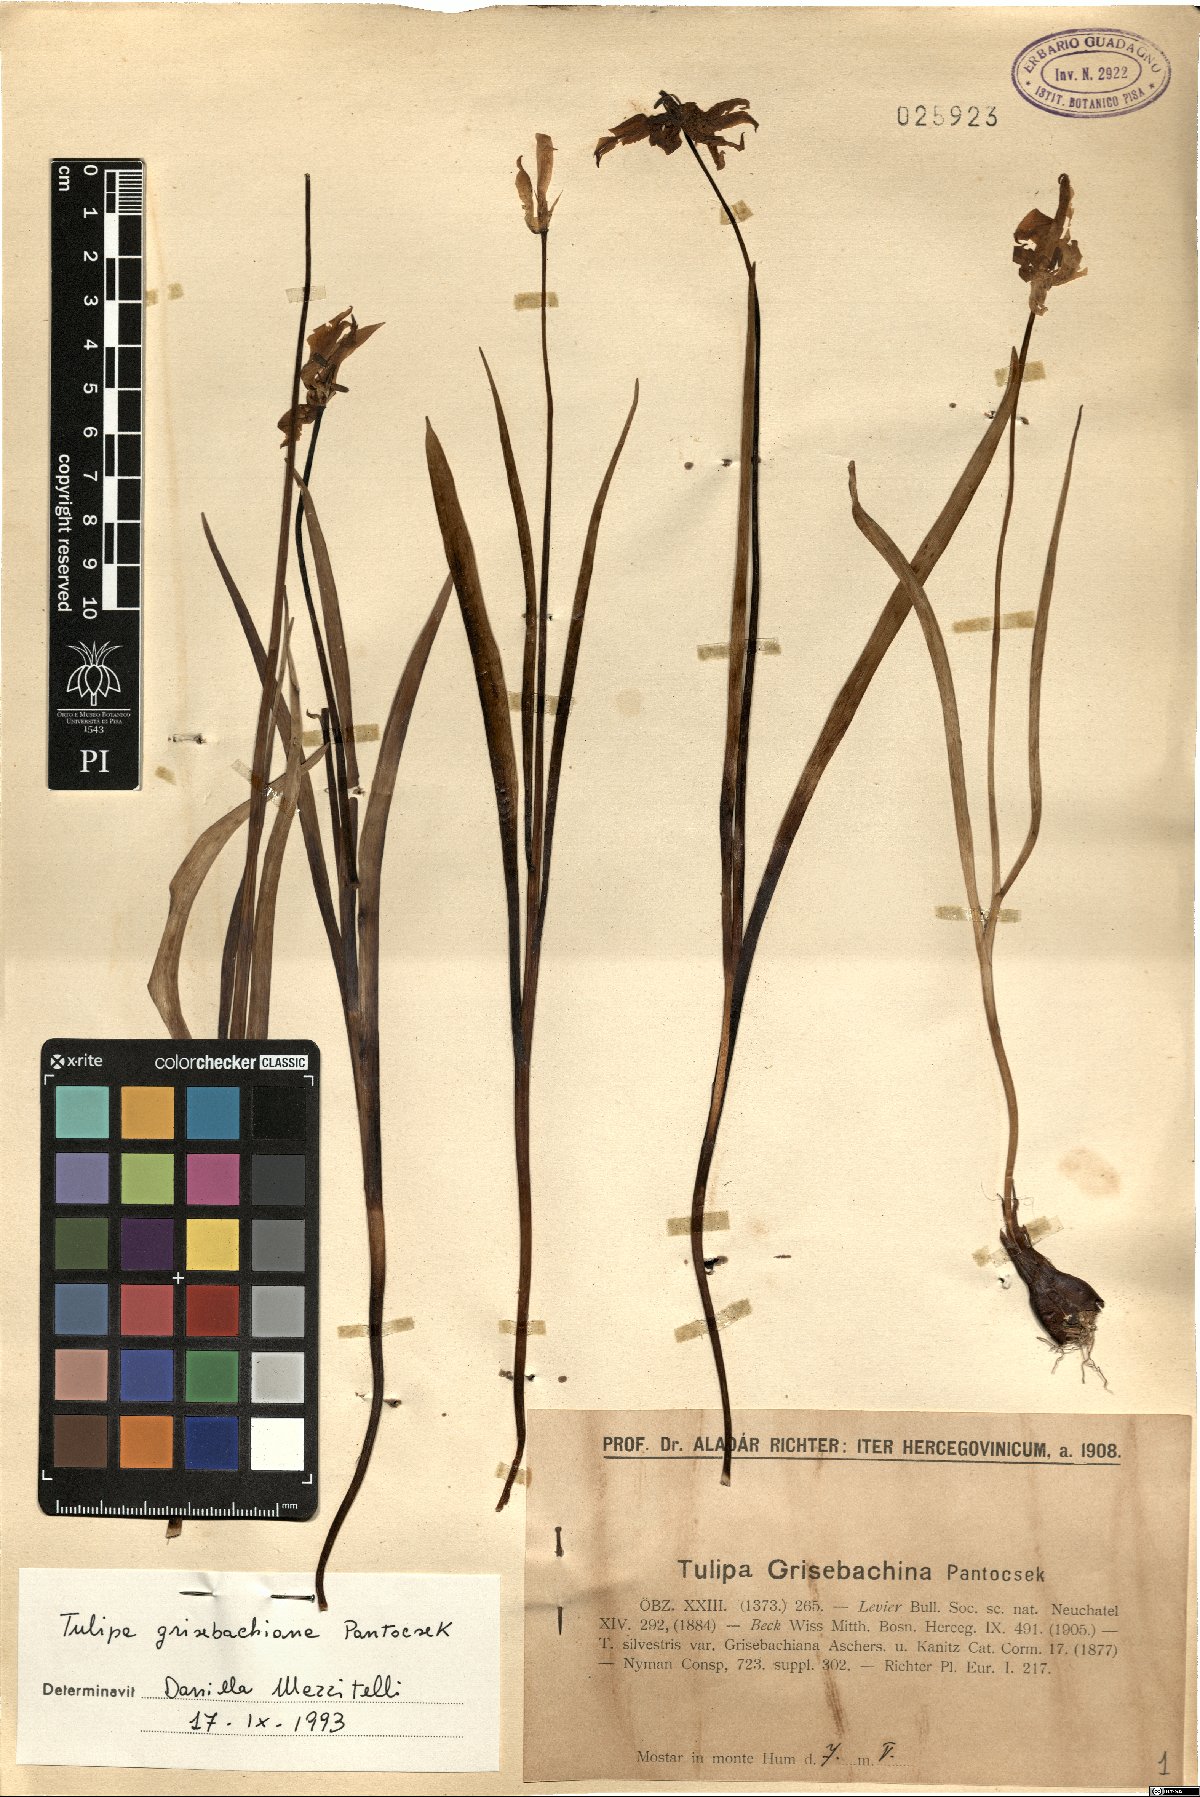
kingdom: Plantae
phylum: Tracheophyta
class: Liliopsida
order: Liliales
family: Liliaceae
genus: Tulipa
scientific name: Tulipa sylvestris
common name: Wild tulip
